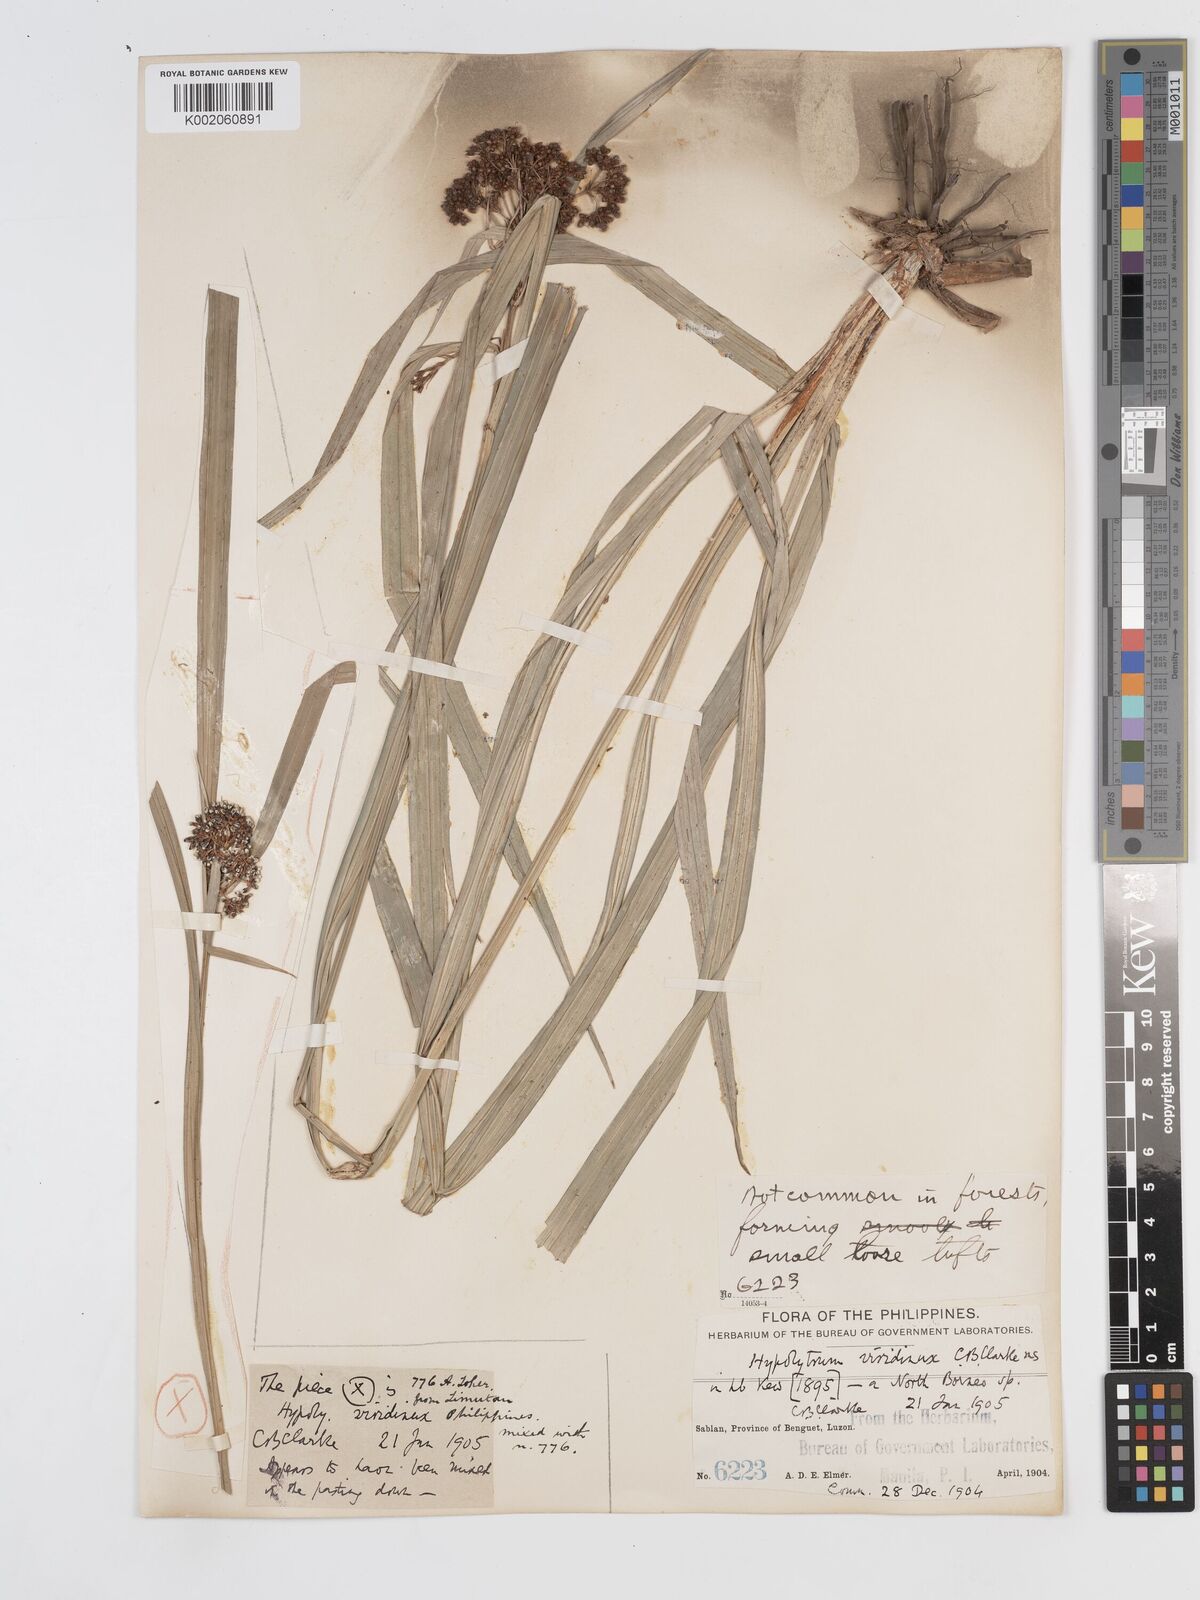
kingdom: Plantae
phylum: Tracheophyta
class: Liliopsida
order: Poales
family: Cyperaceae
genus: Hypolytrum
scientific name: Hypolytrum nemorum
